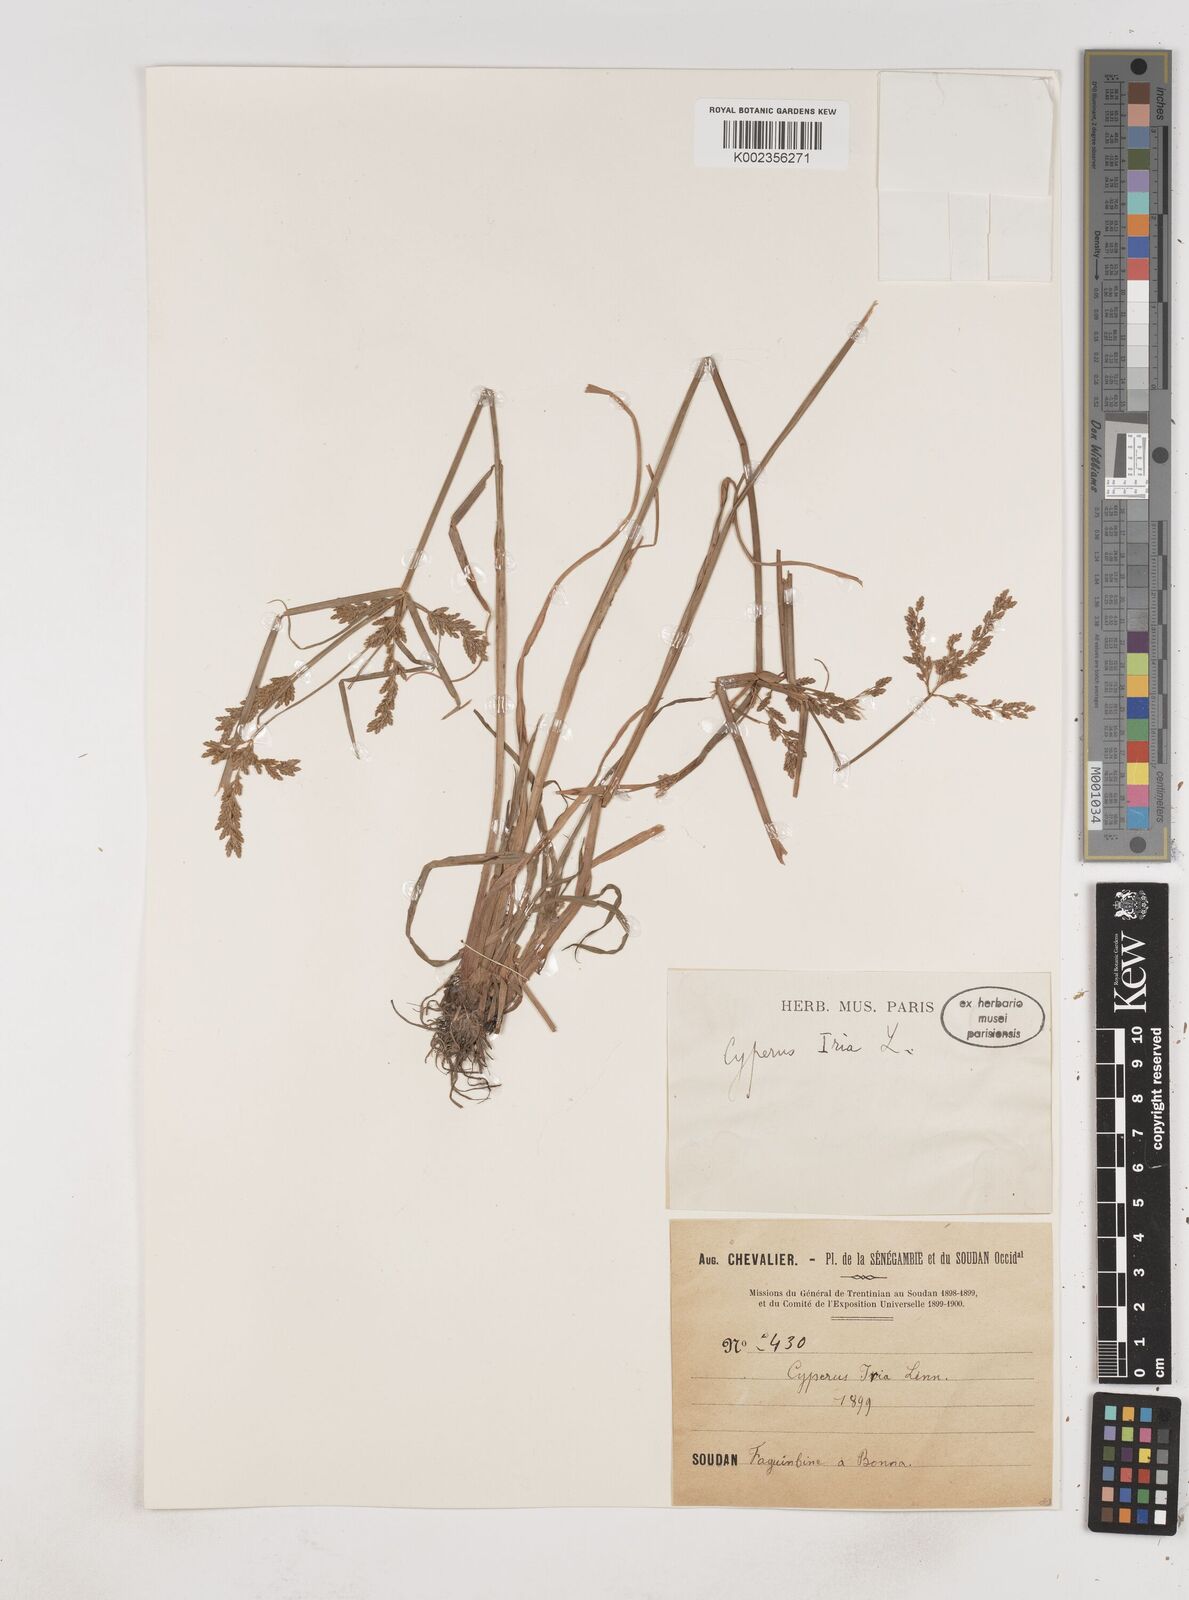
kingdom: Plantae
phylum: Tracheophyta
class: Liliopsida
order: Poales
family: Cyperaceae
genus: Cyperus
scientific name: Cyperus iria
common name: Ricefield flatsedge
